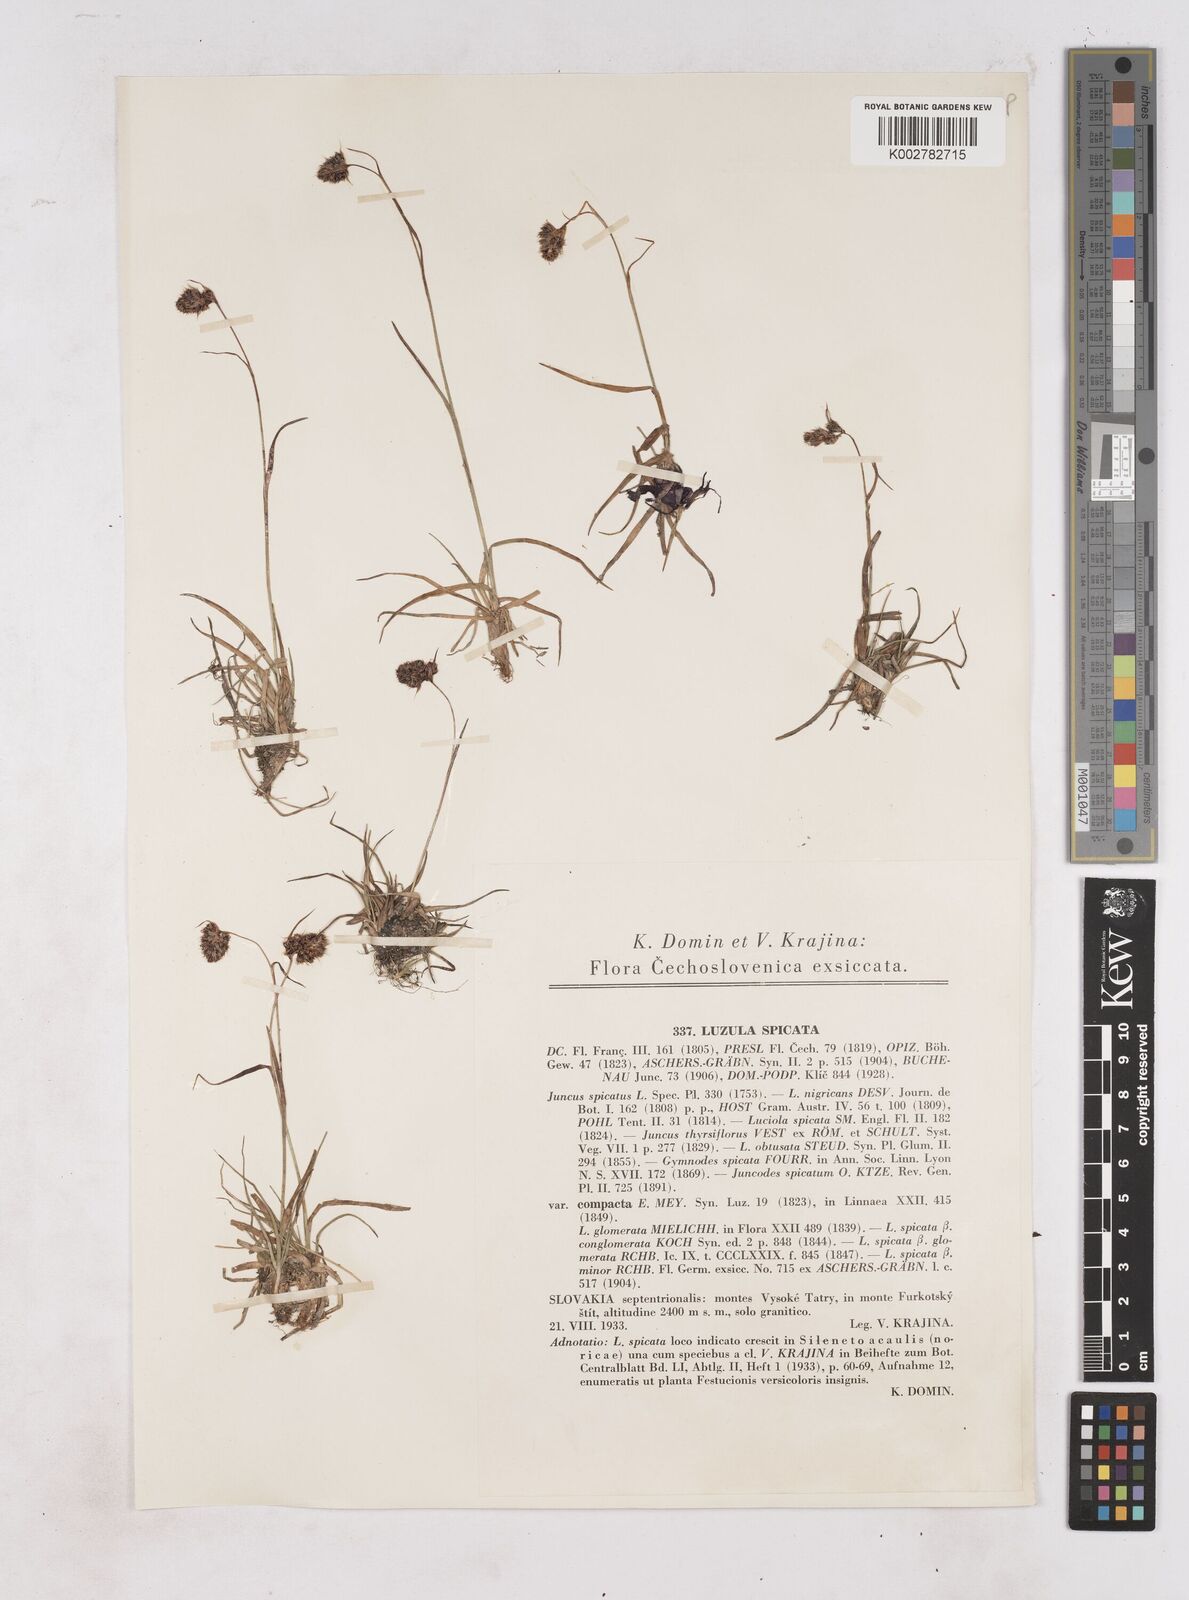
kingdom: Plantae
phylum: Tracheophyta
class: Liliopsida
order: Poales
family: Juncaceae
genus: Luzula
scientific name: Luzula spicata
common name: Spiked wood-rush
